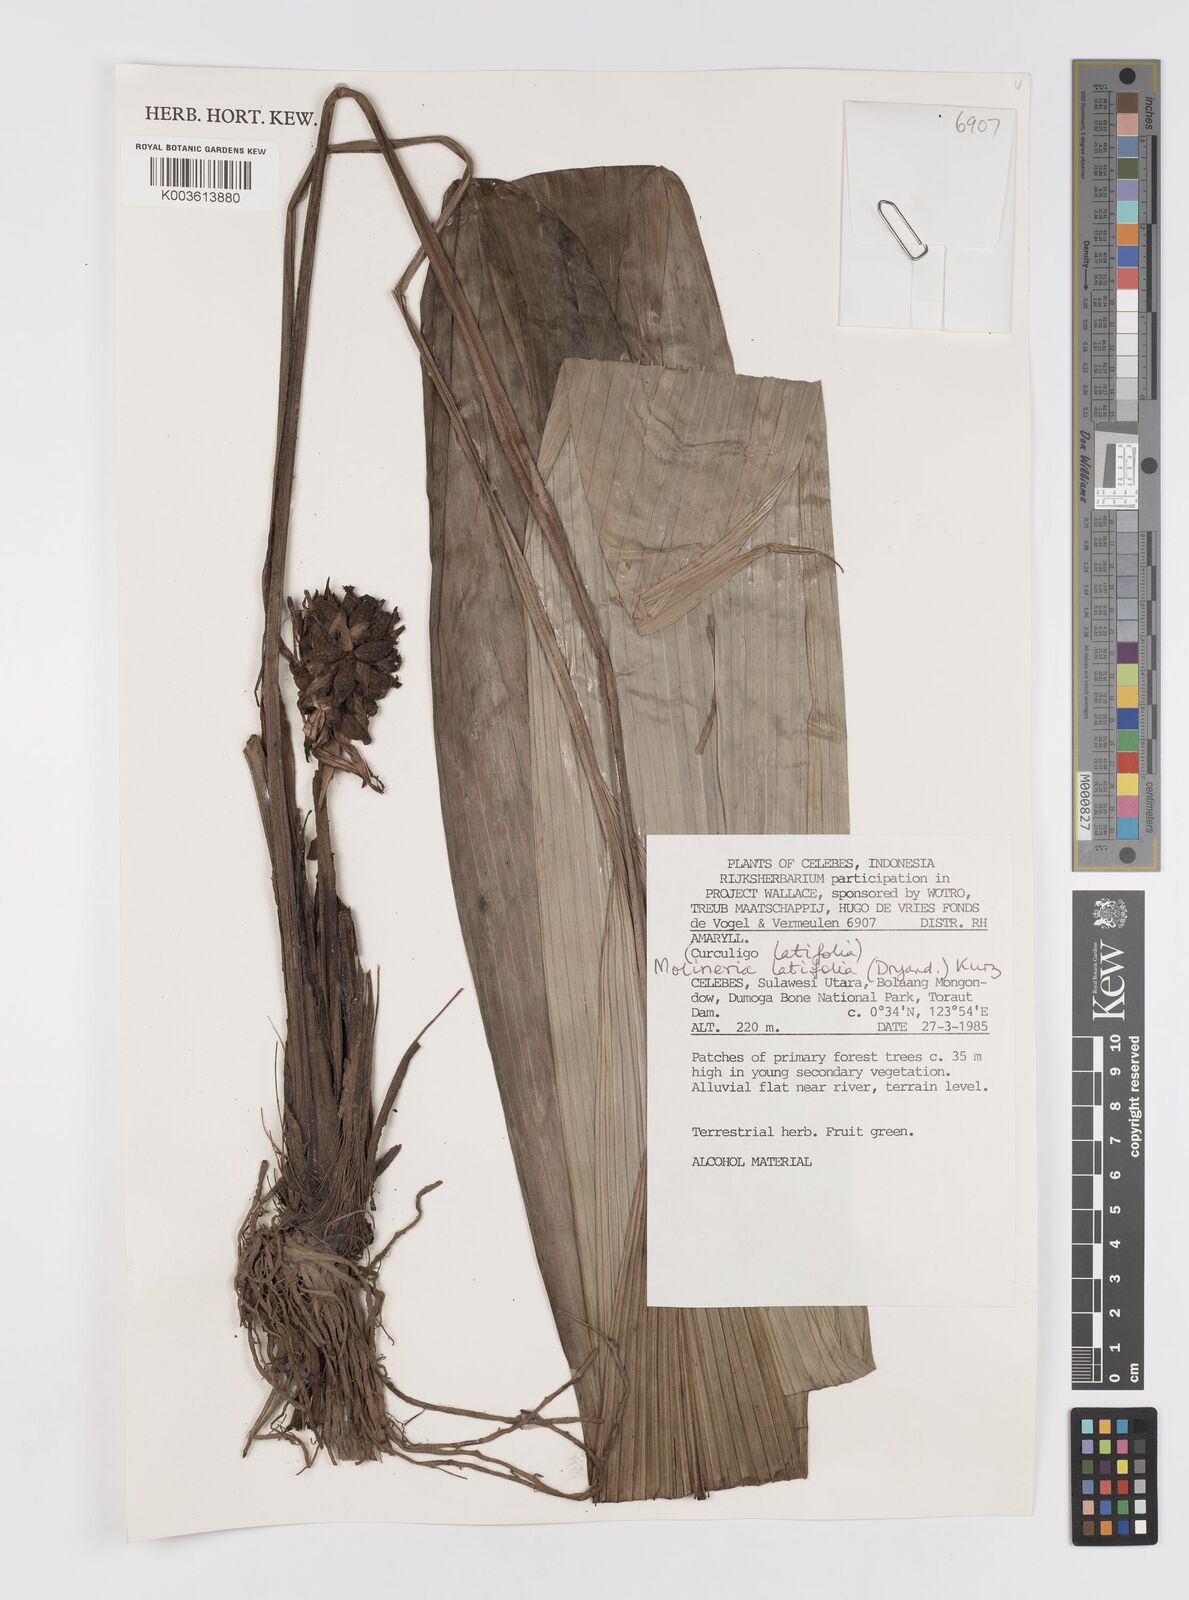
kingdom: Plantae
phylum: Tracheophyta
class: Liliopsida
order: Asparagales
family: Hypoxidaceae
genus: Curculigo
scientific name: Curculigo latifolia
